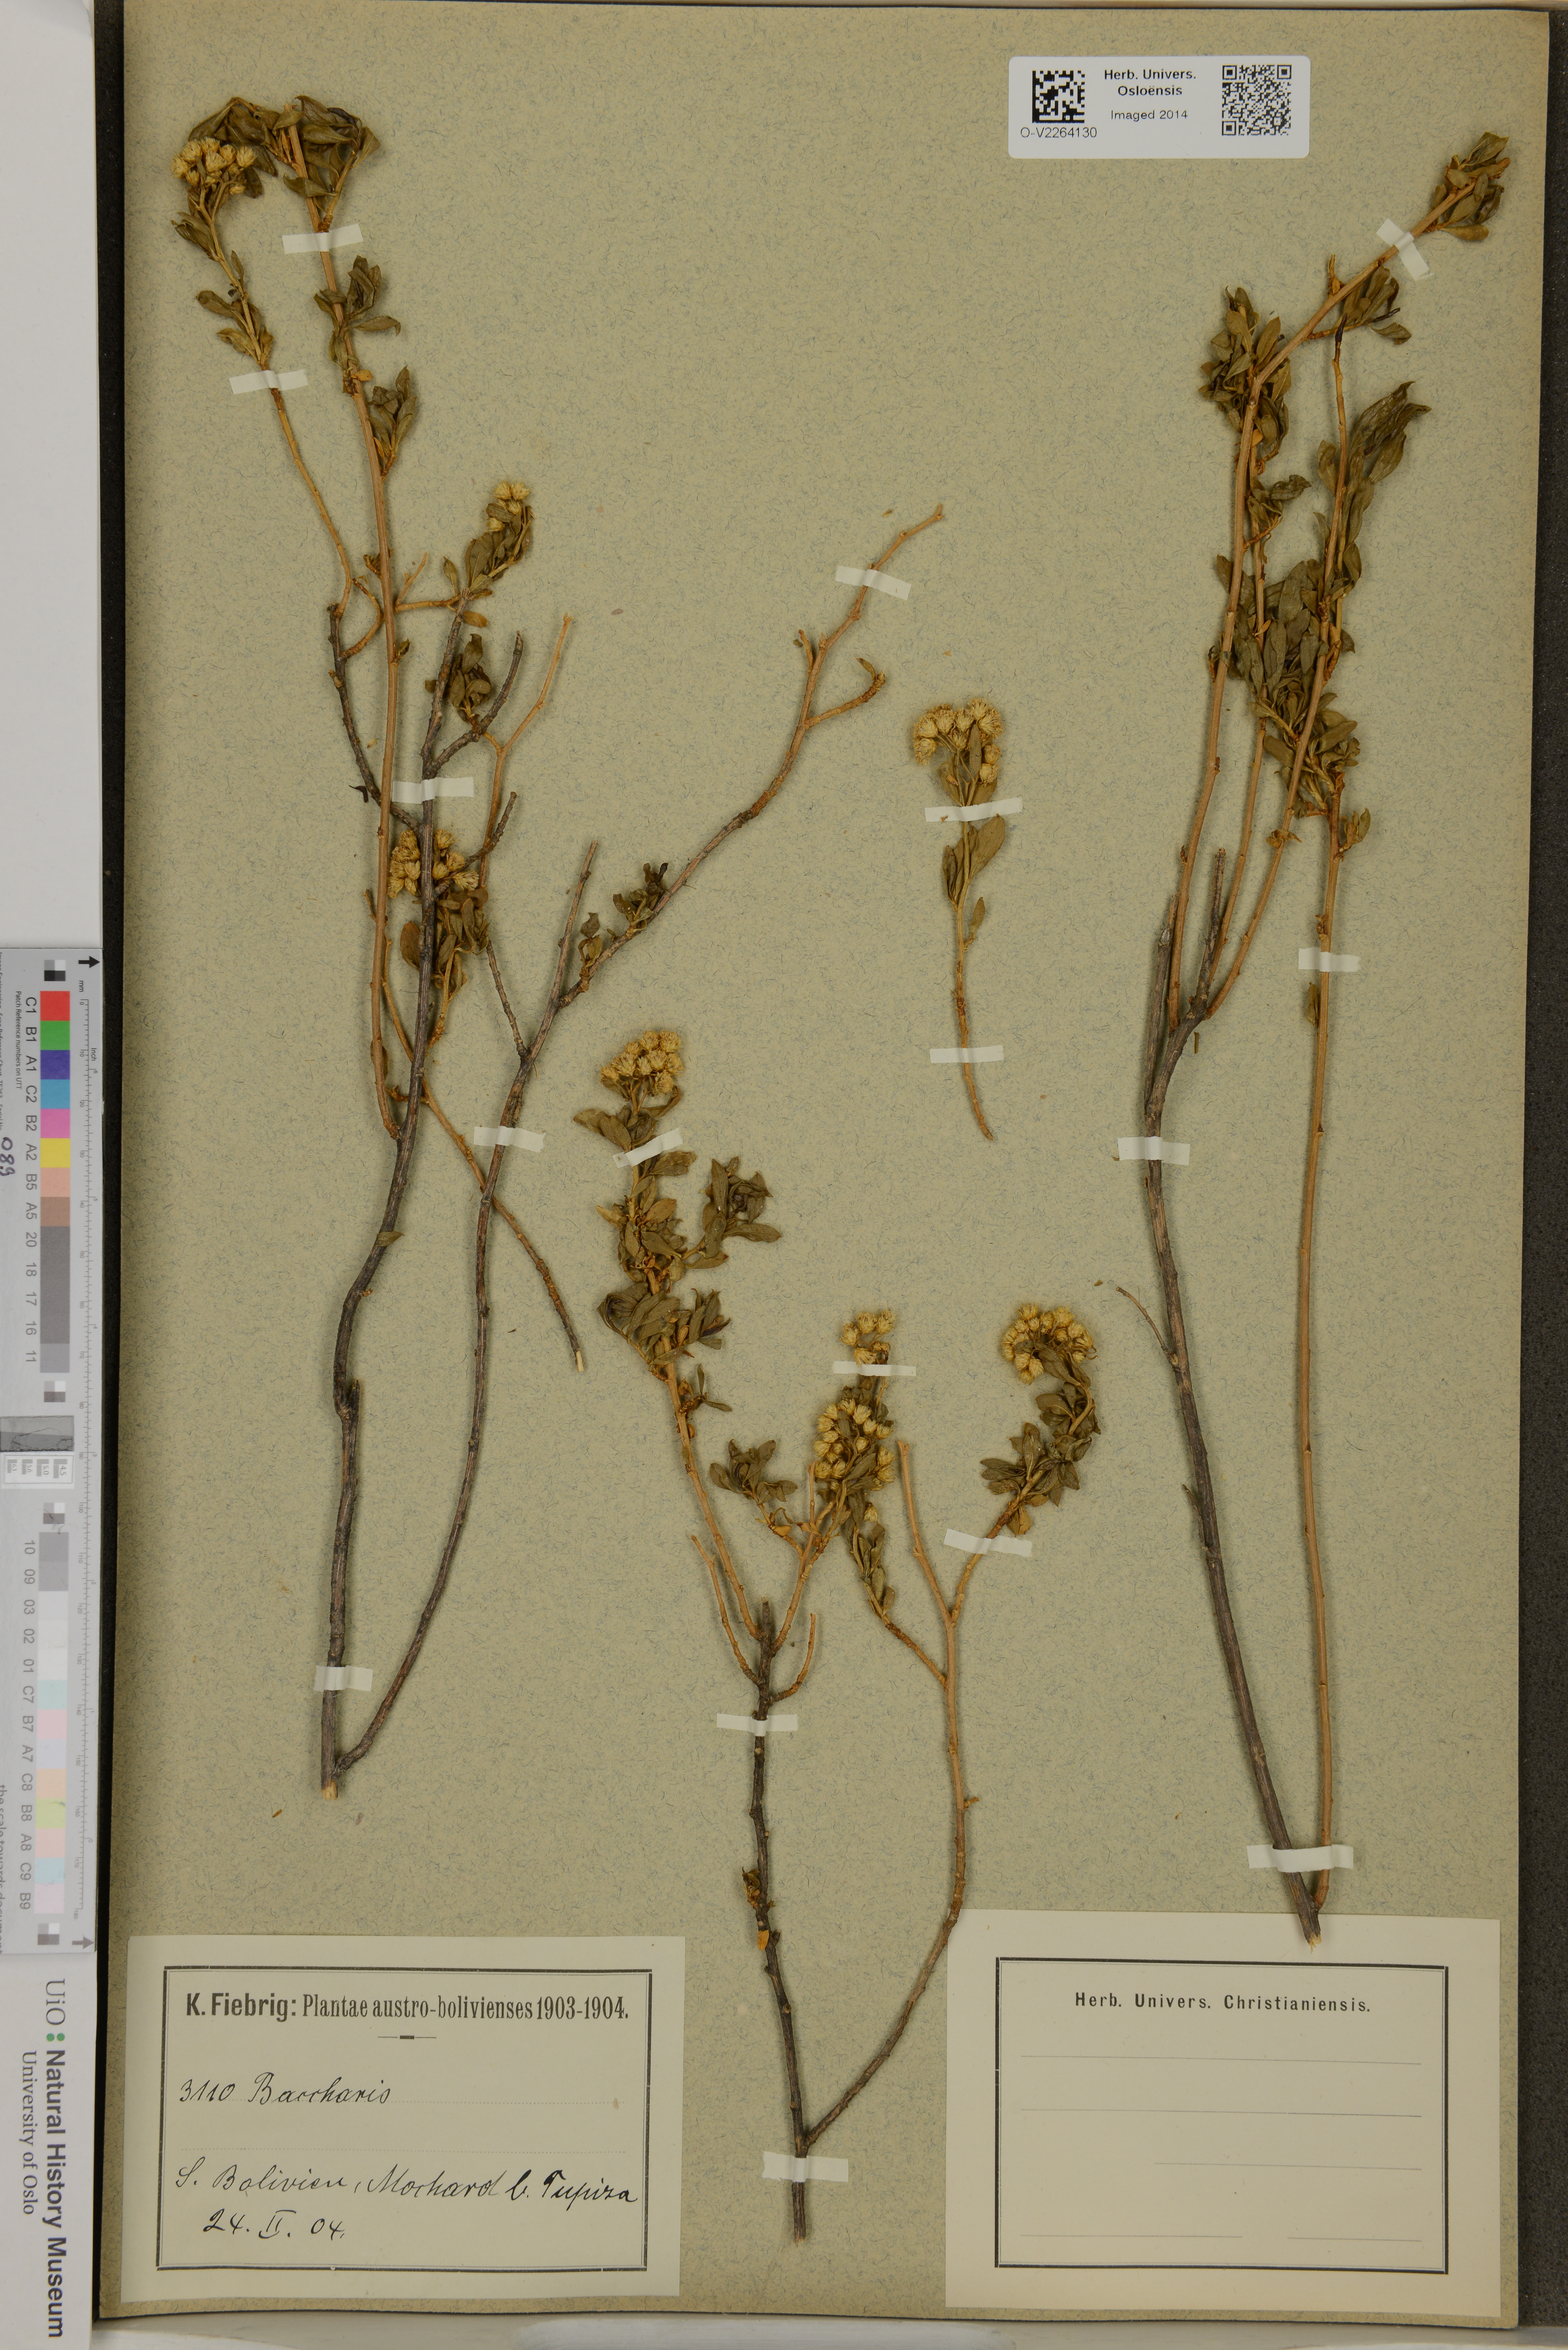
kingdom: Plantae
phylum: Tracheophyta
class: Magnoliopsida
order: Asterales
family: Asteraceae
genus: Baccharis
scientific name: Baccharis
